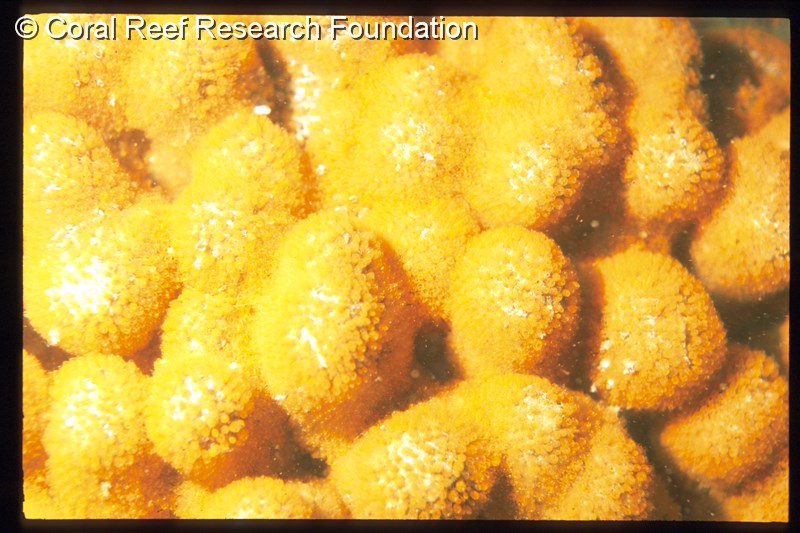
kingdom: Animalia
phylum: Chordata
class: Ascidiacea
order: Aplousobranchia
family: Clavelinidae
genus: Pycnoclavella
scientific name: Pycnoclavella inflorescens
